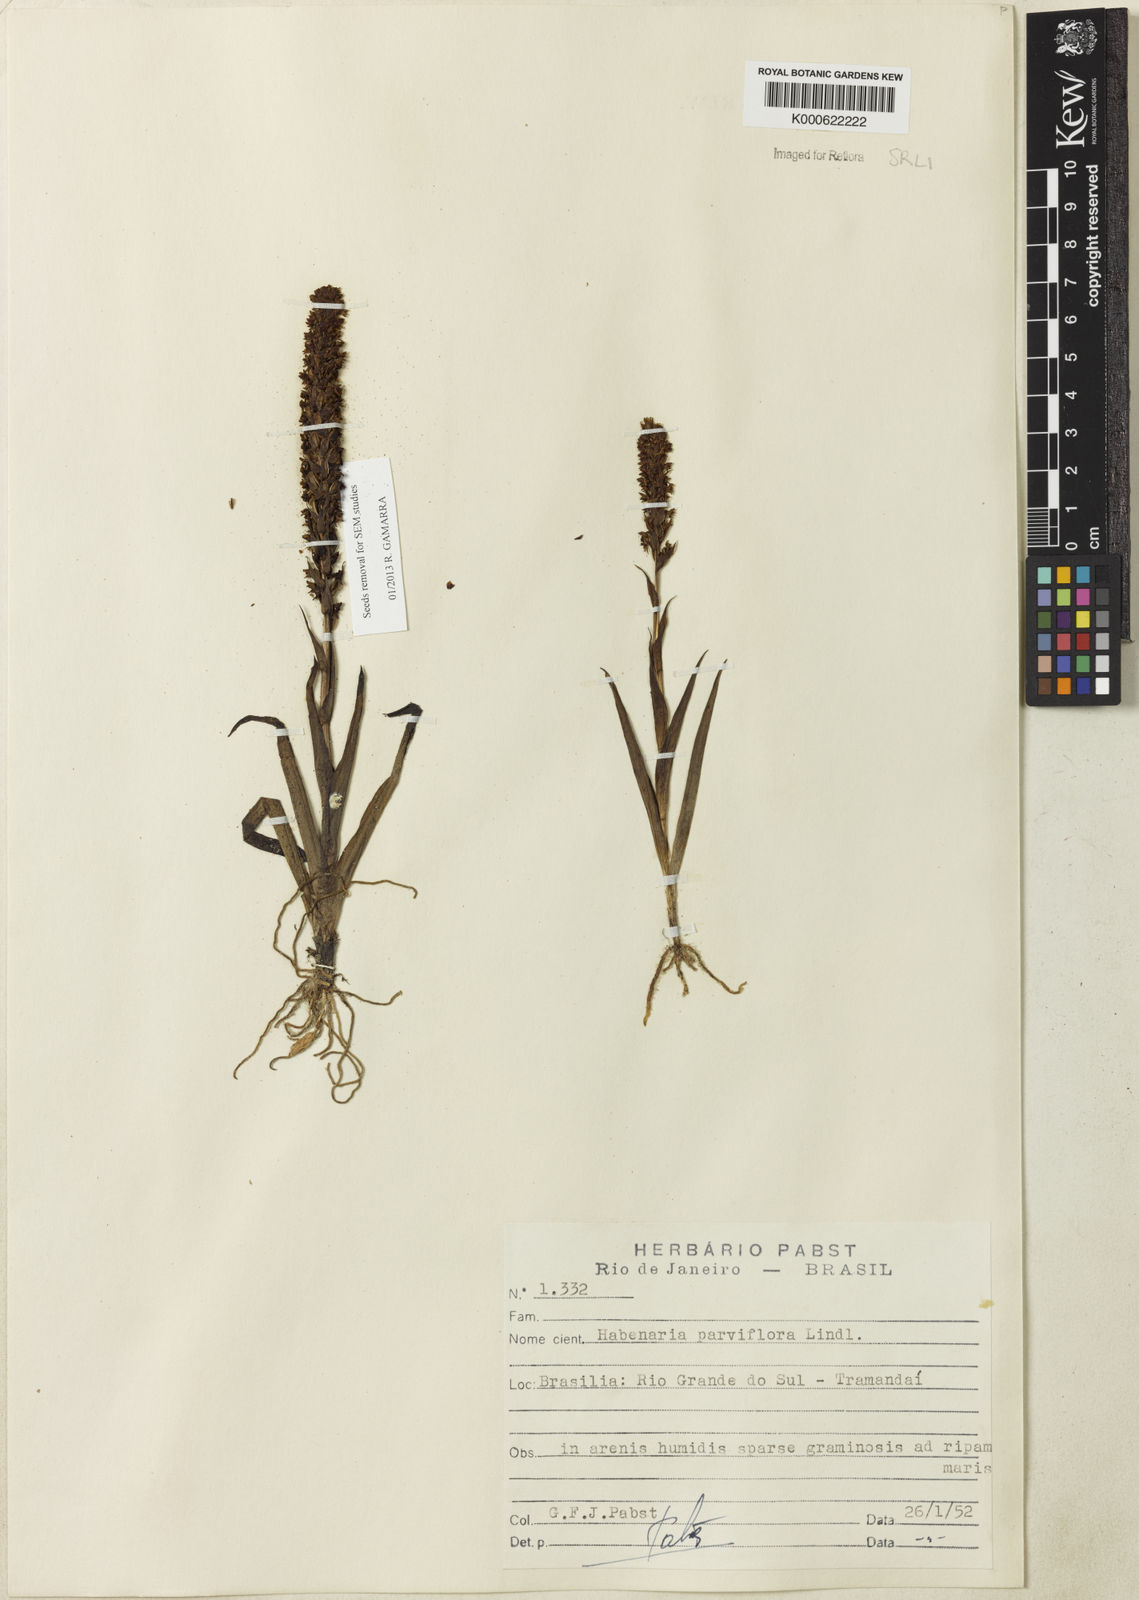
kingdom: Plantae
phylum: Tracheophyta
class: Liliopsida
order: Asparagales
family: Orchidaceae
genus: Habenaria
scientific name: Habenaria parviflora
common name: Small flowered habenaria
